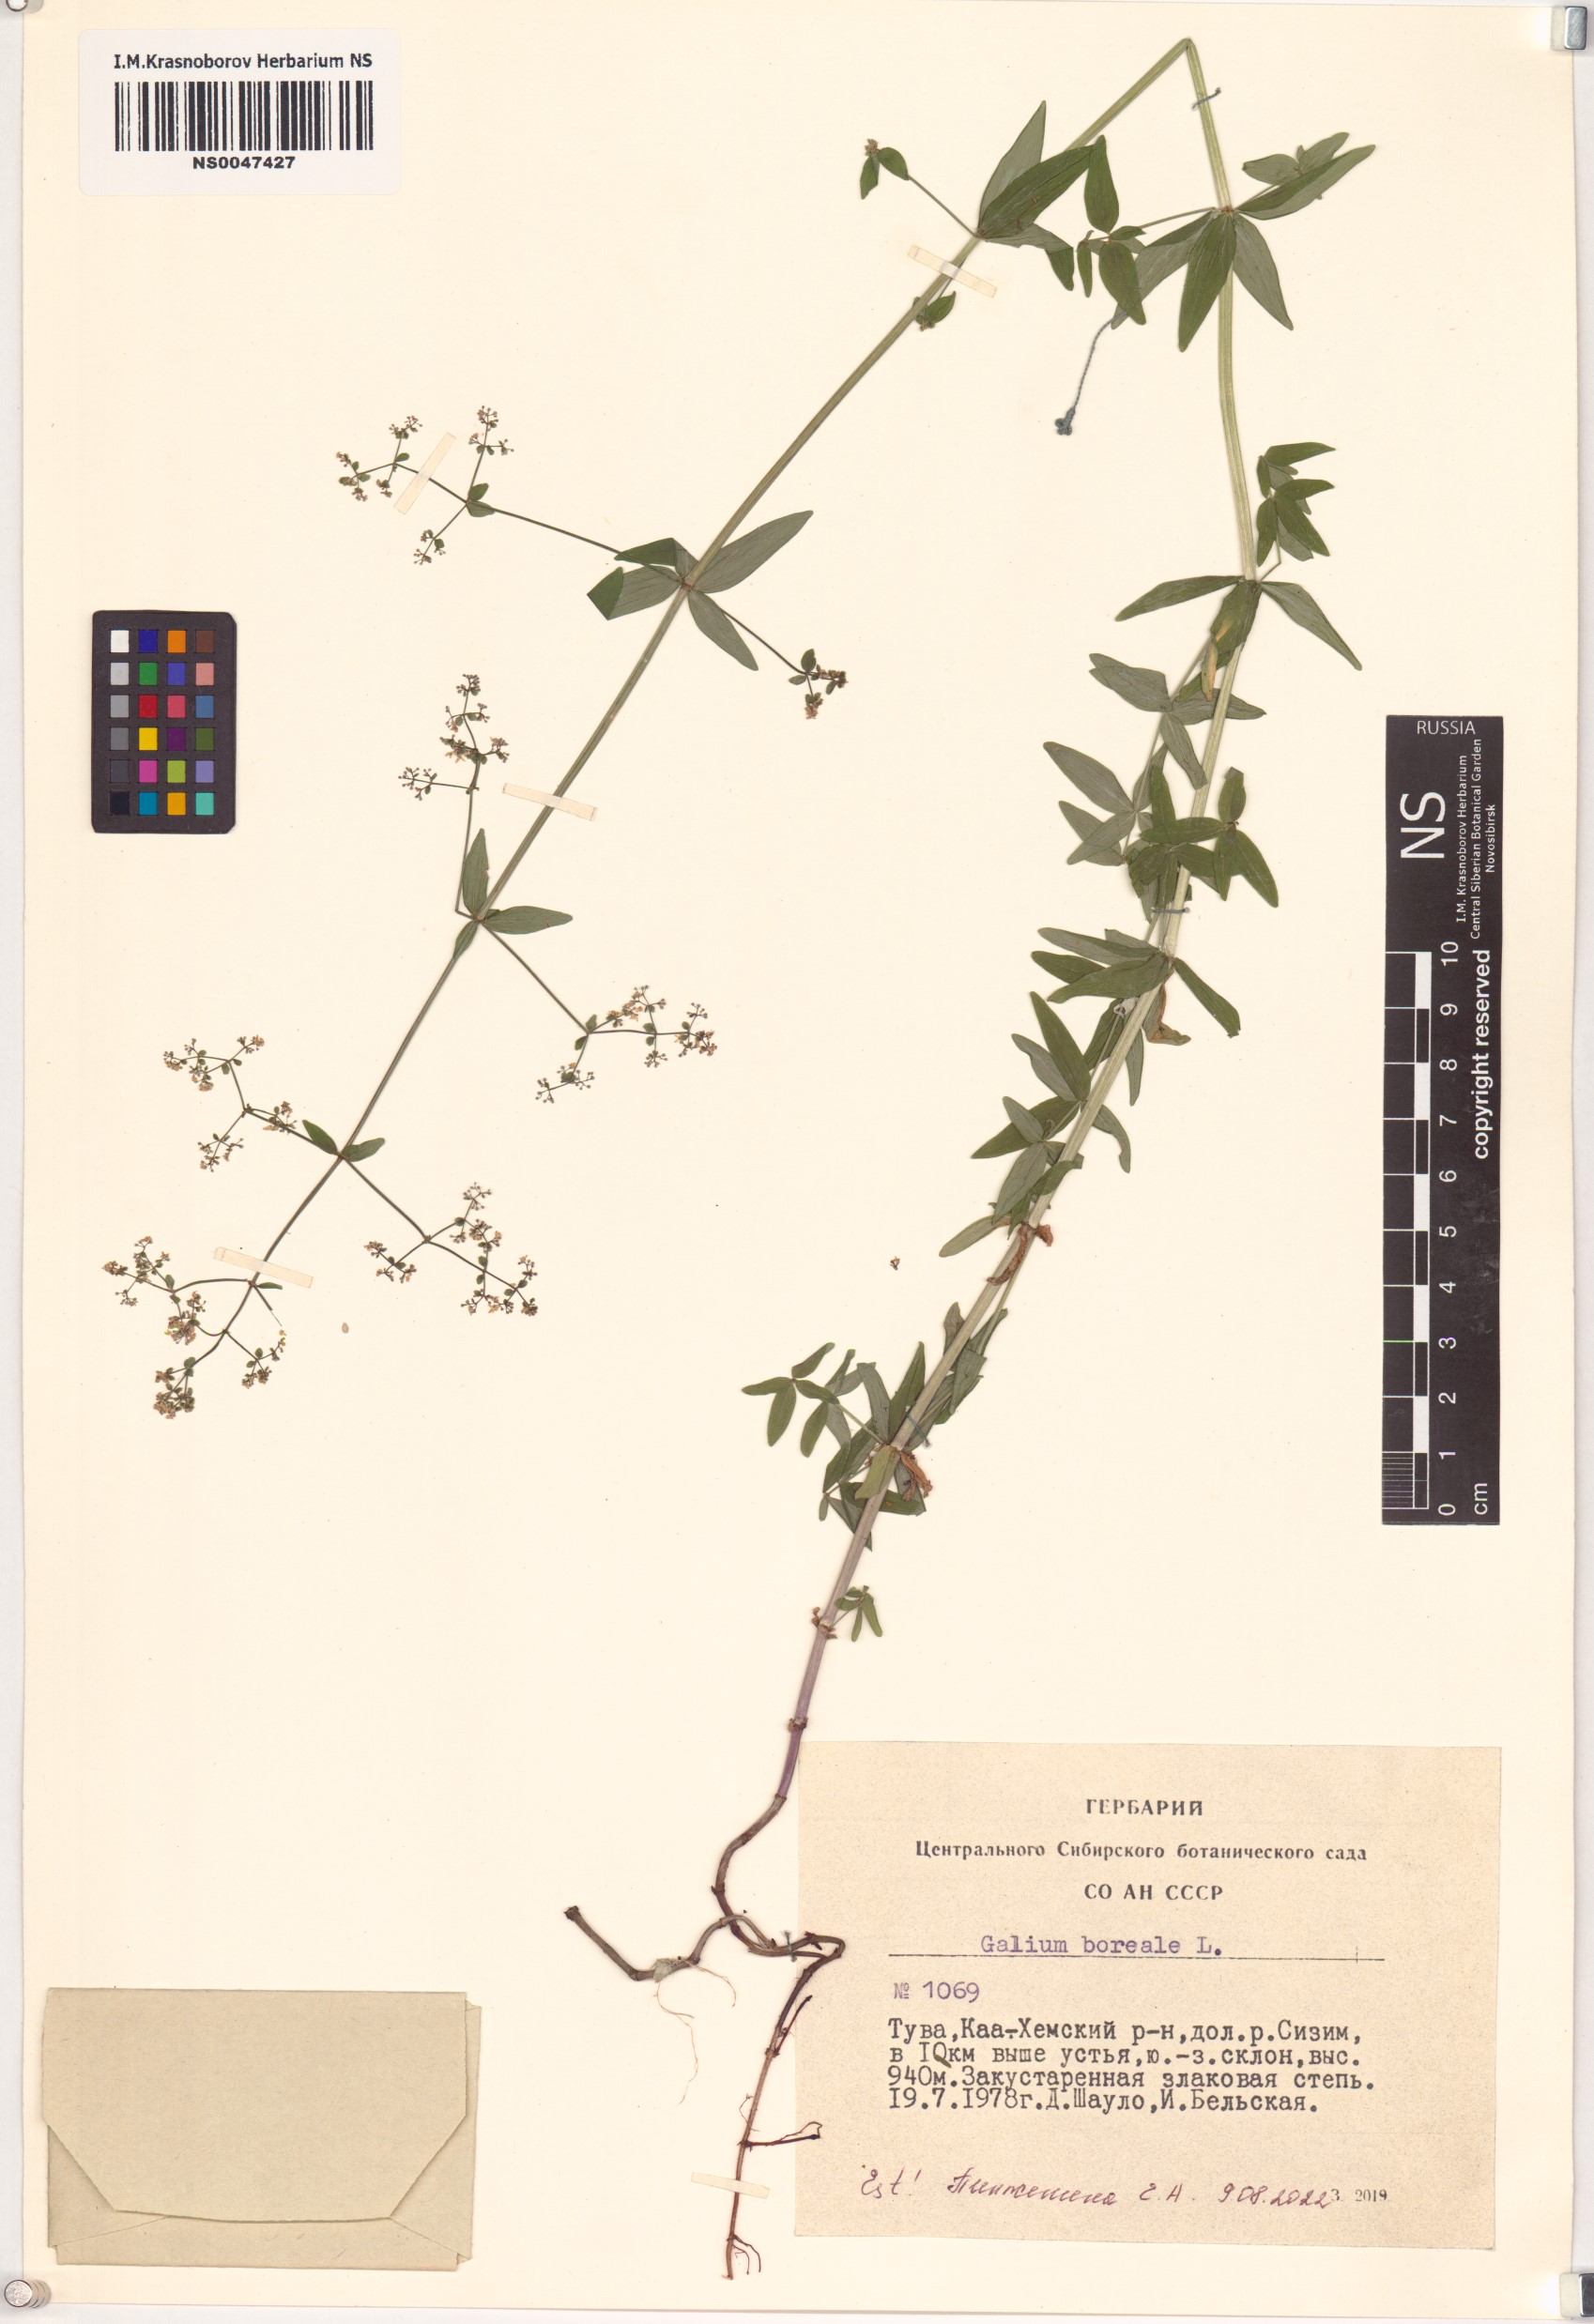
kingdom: Plantae
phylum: Tracheophyta
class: Magnoliopsida
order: Gentianales
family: Rubiaceae
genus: Galium
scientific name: Galium boreale
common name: Northern bedstraw
